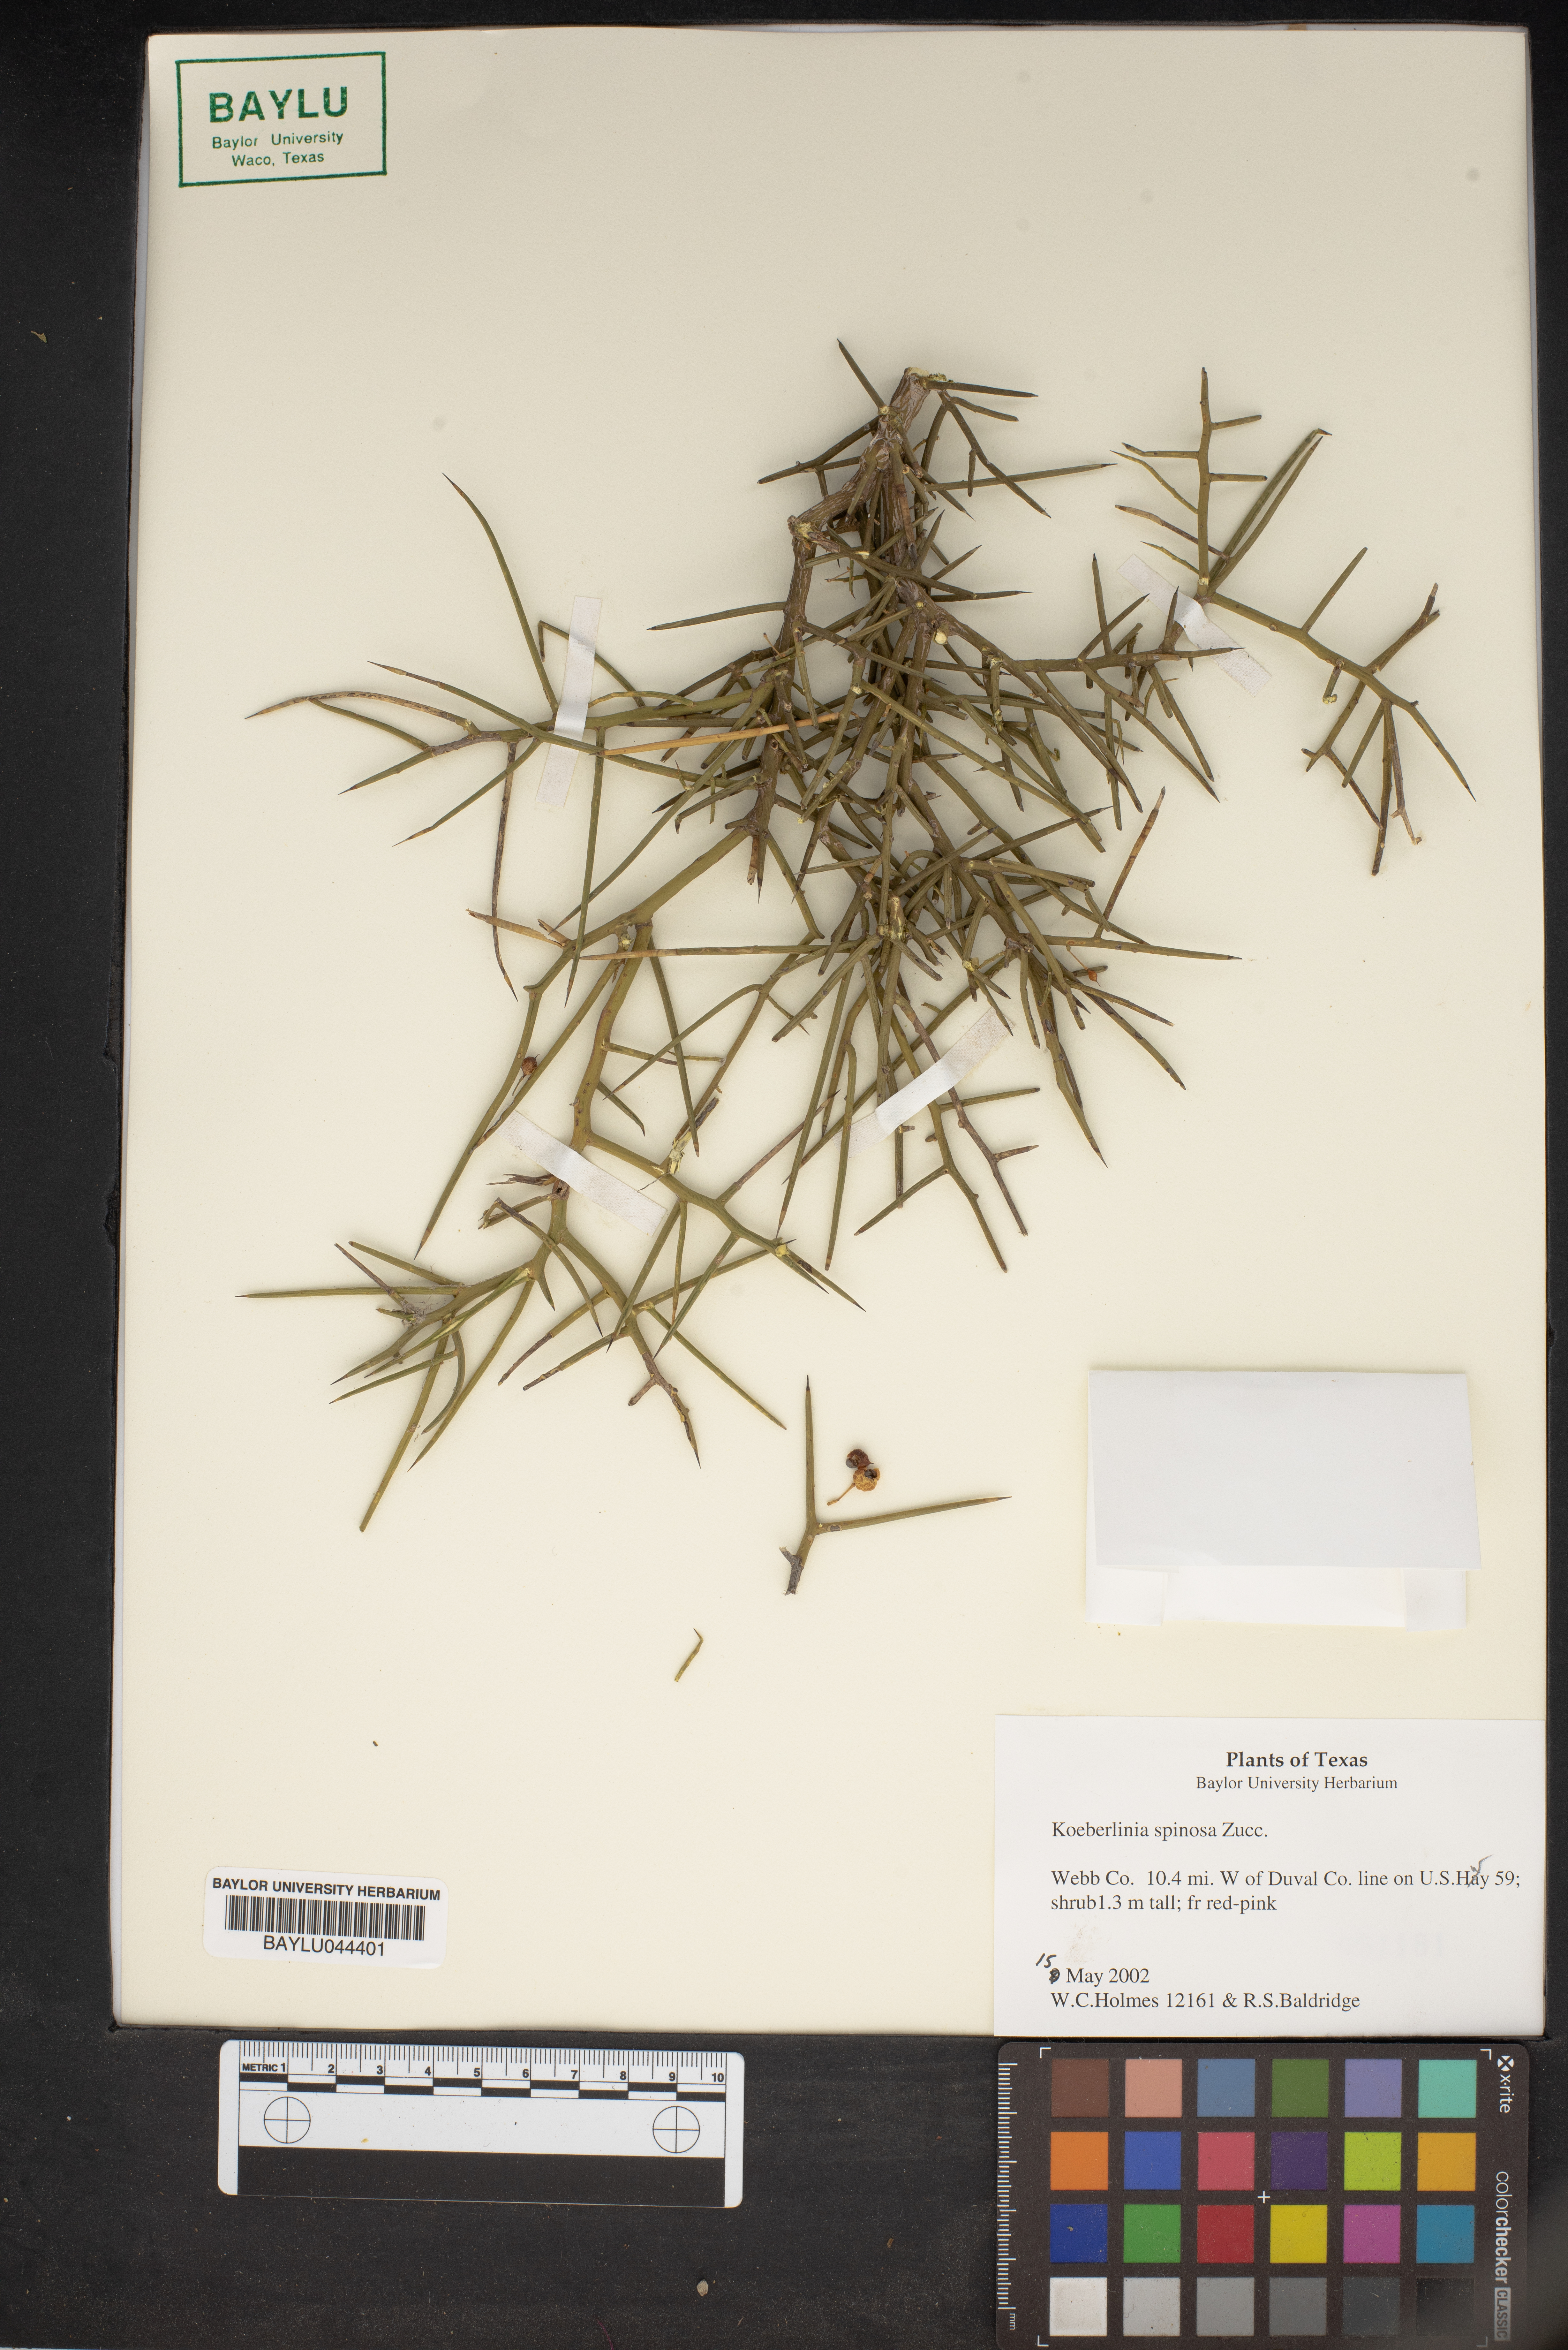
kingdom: Plantae
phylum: Tracheophyta
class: Magnoliopsida
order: Brassicales
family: Koeberliniaceae
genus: Koeberlinia
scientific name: Koeberlinia spinosa
